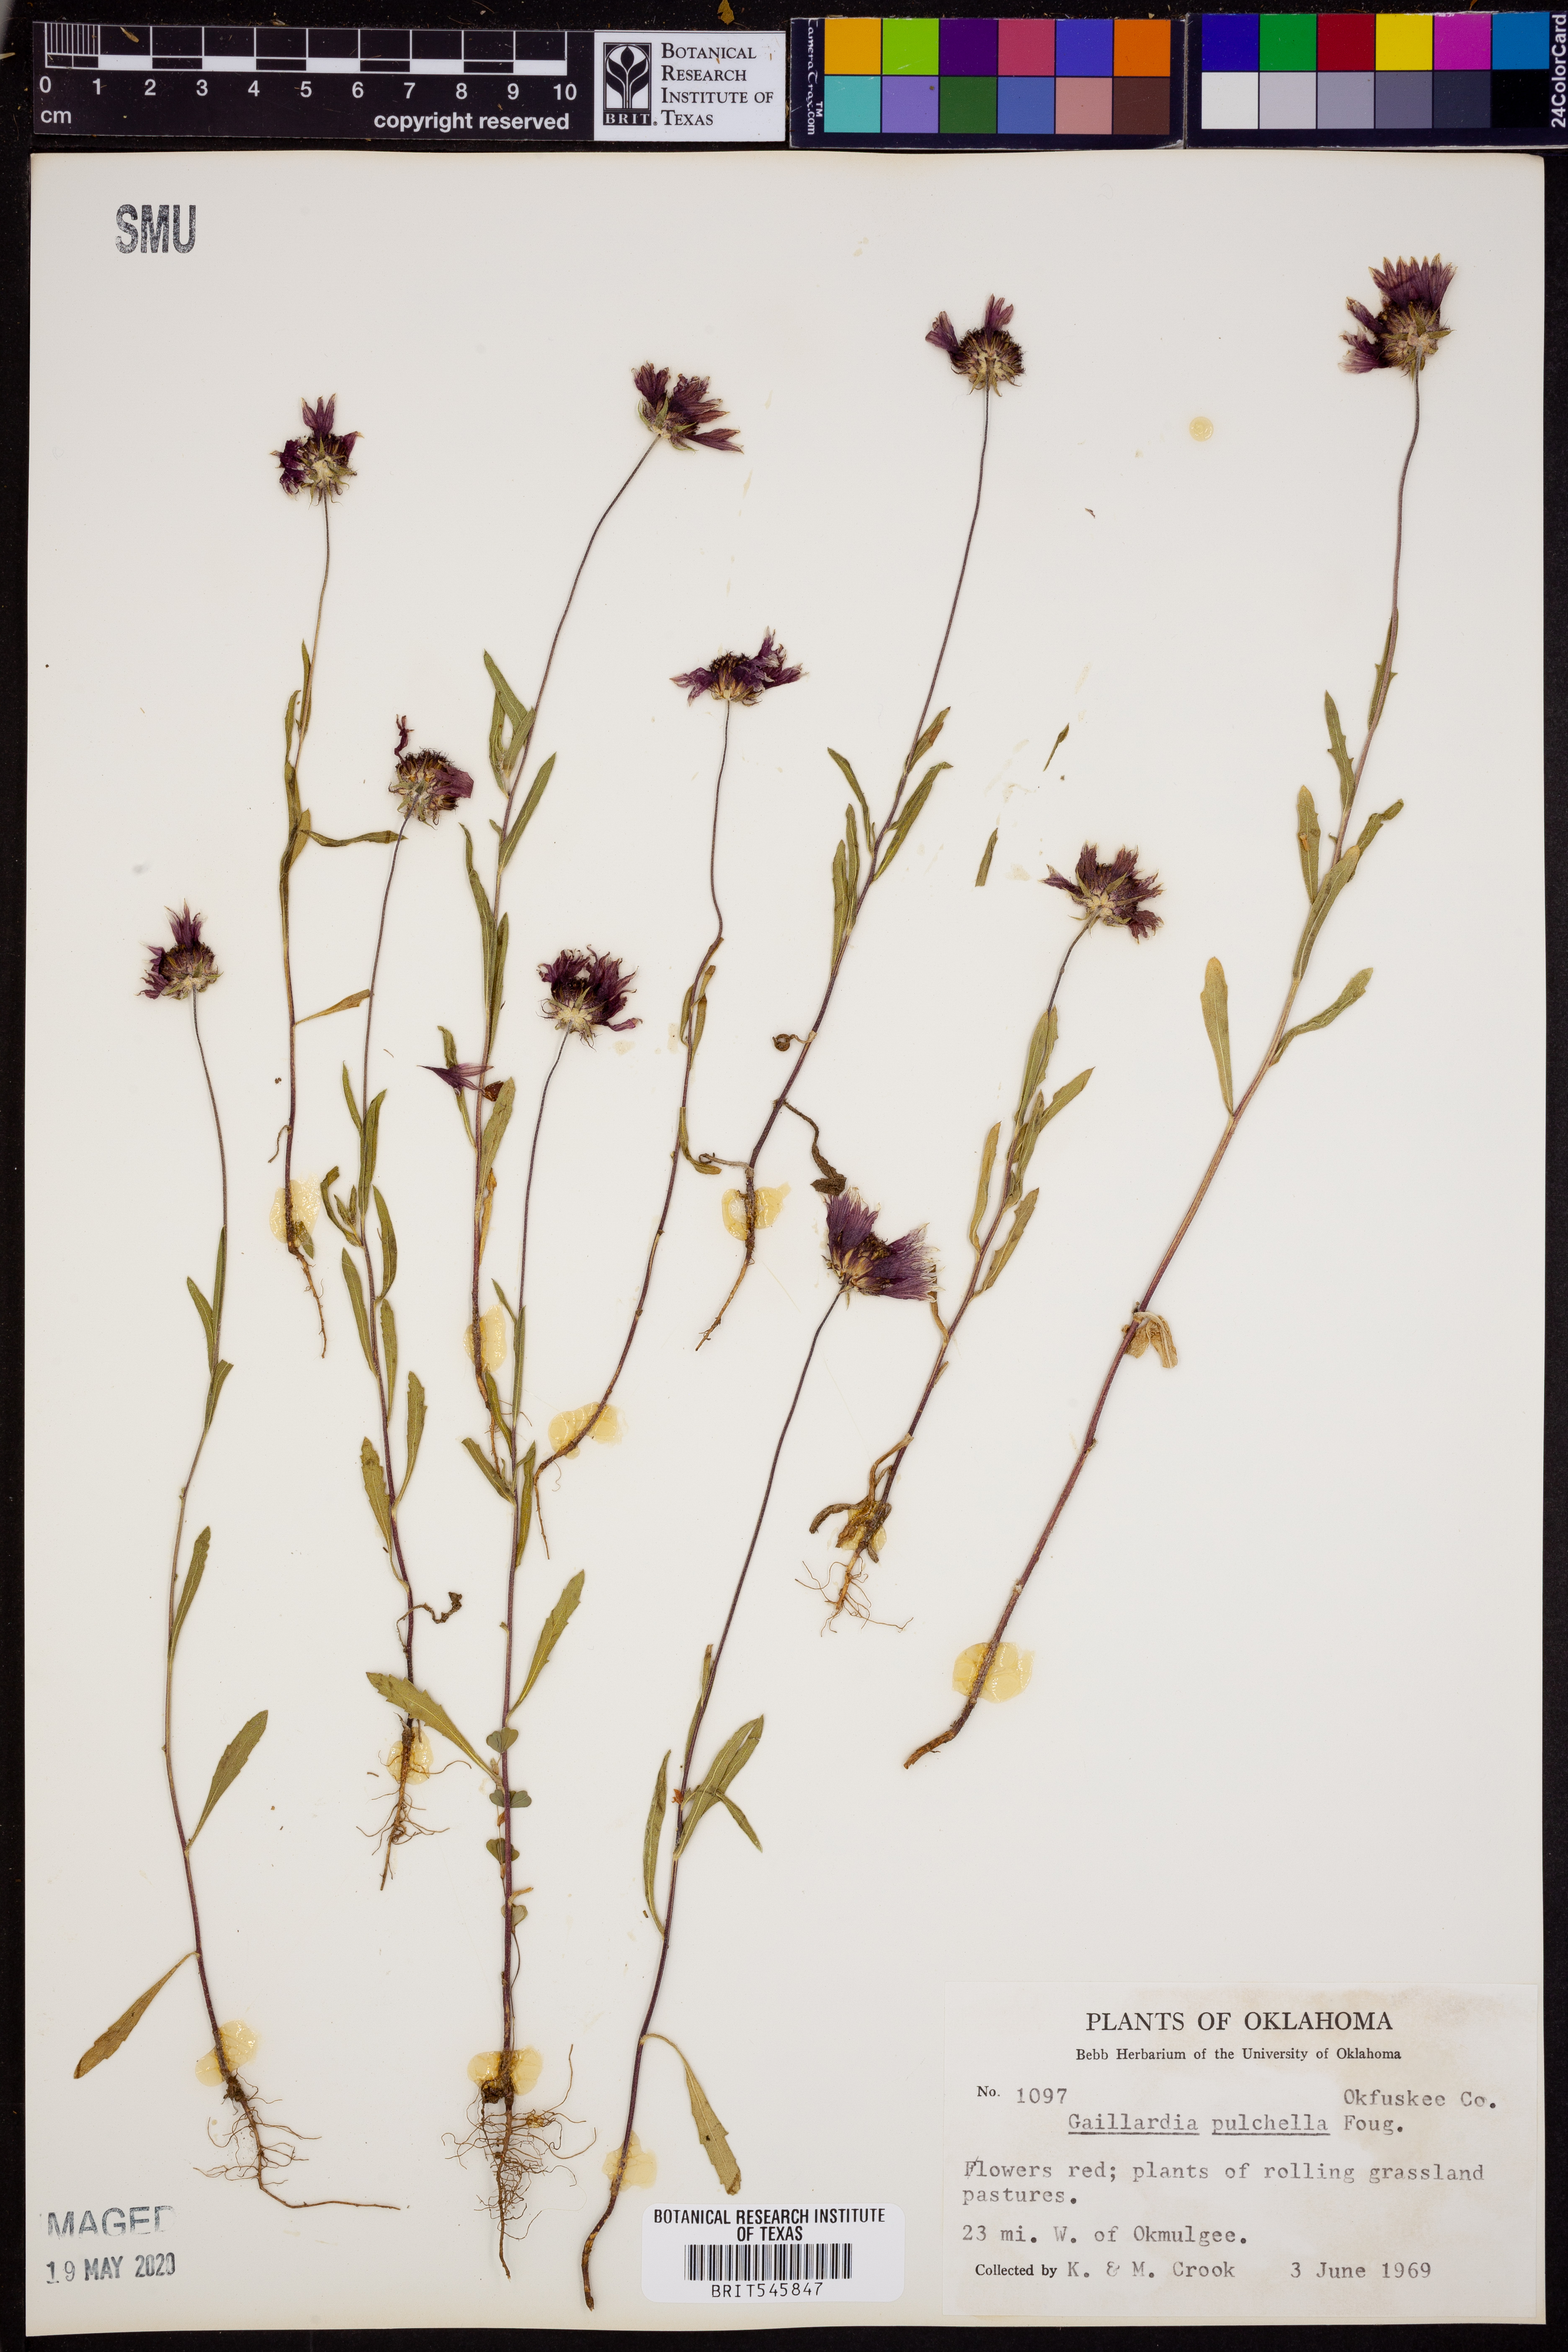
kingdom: Plantae
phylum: Tracheophyta
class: Magnoliopsida
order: Asterales
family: Asteraceae
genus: Gaillardia
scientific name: Gaillardia pulchella
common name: Firewheel
